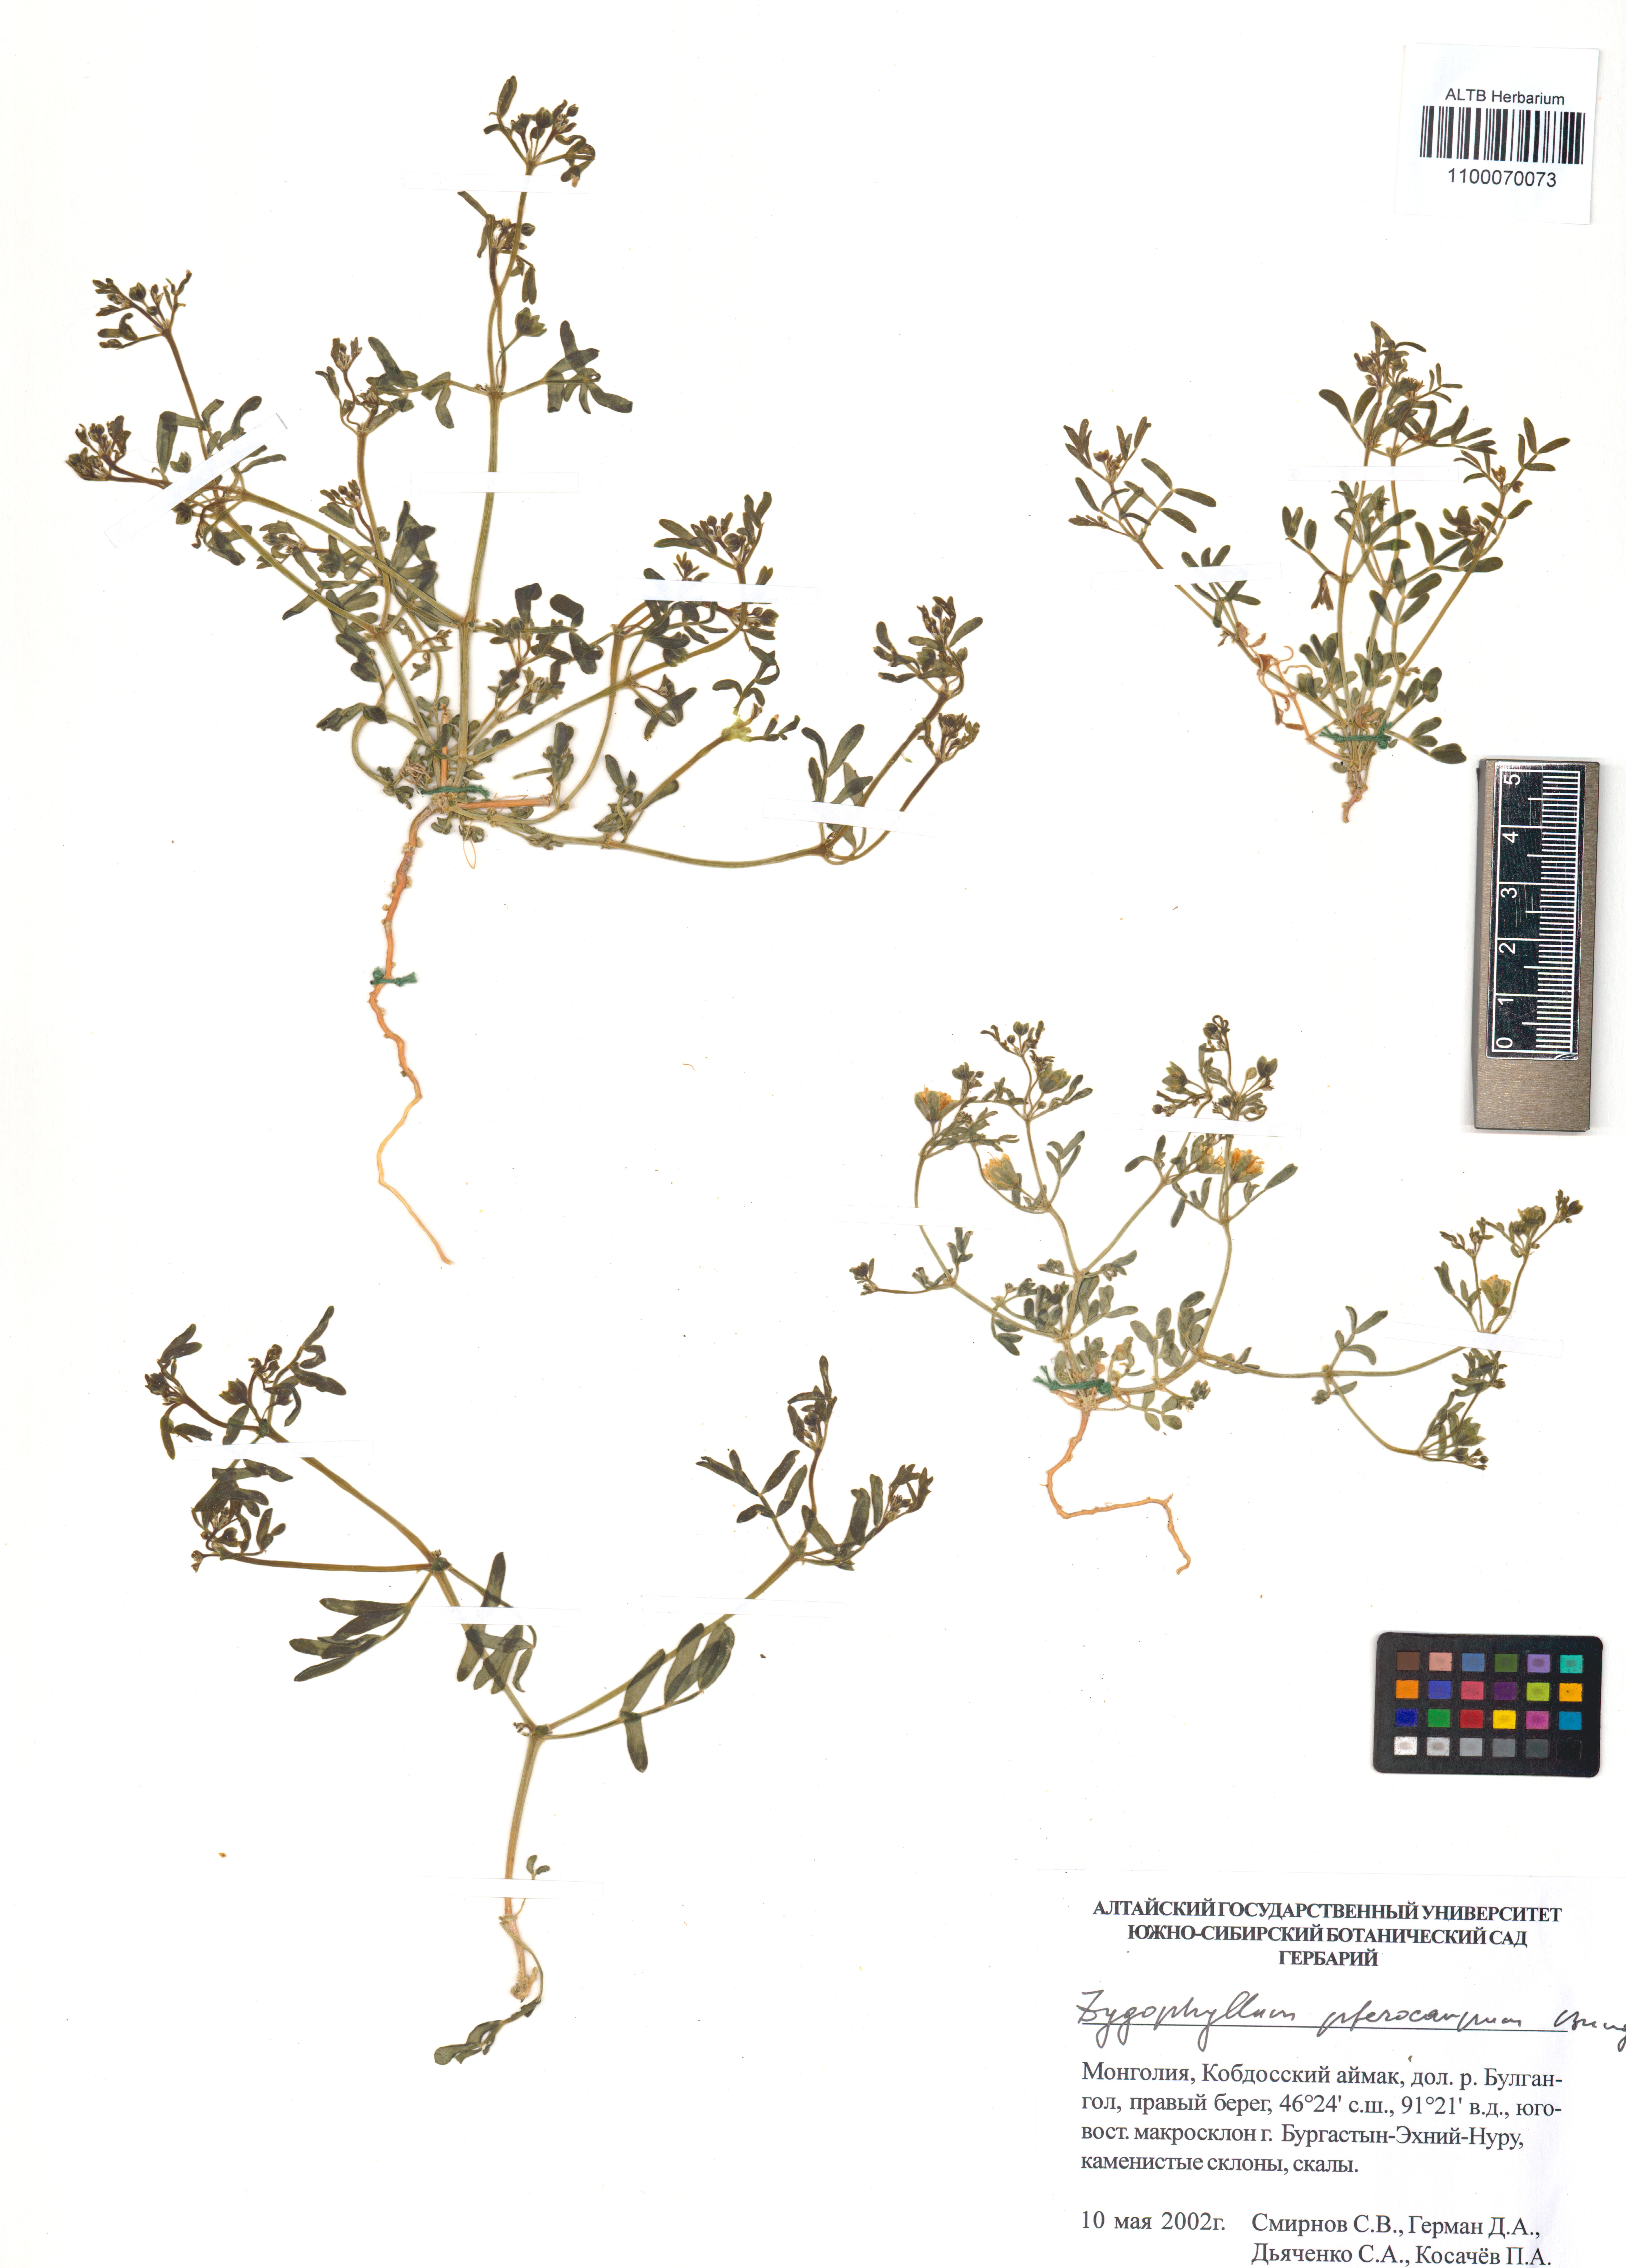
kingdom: Plantae
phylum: Tracheophyta
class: Magnoliopsida
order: Zygophyllales
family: Zygophyllaceae
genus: Zygophyllum
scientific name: Zygophyllum pterocarpum
